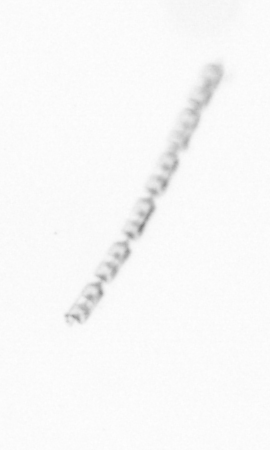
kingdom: Chromista
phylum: Ochrophyta
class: Bacillariophyceae
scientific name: Bacillariophyceae
